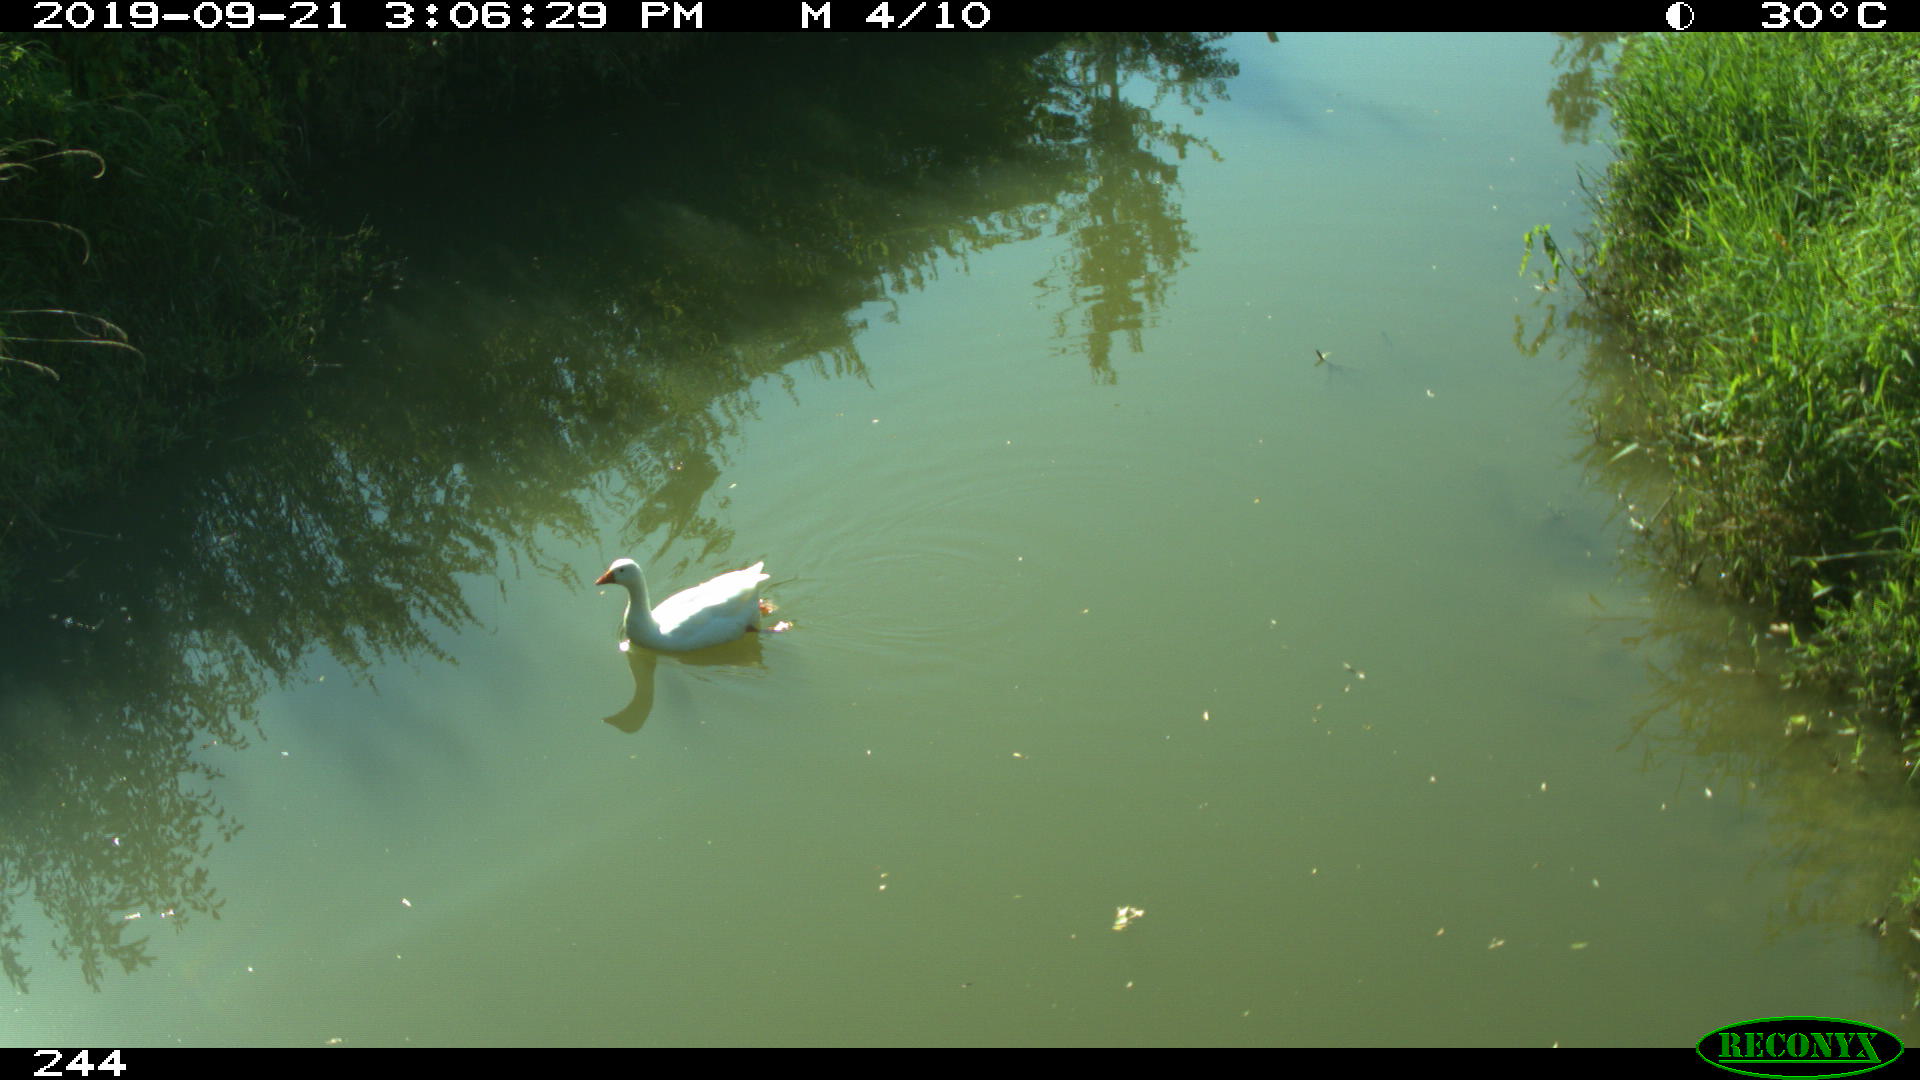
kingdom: Animalia
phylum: Chordata
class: Aves
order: Anseriformes
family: Anatidae
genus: Anser
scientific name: Anser anser
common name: Greylag goose
